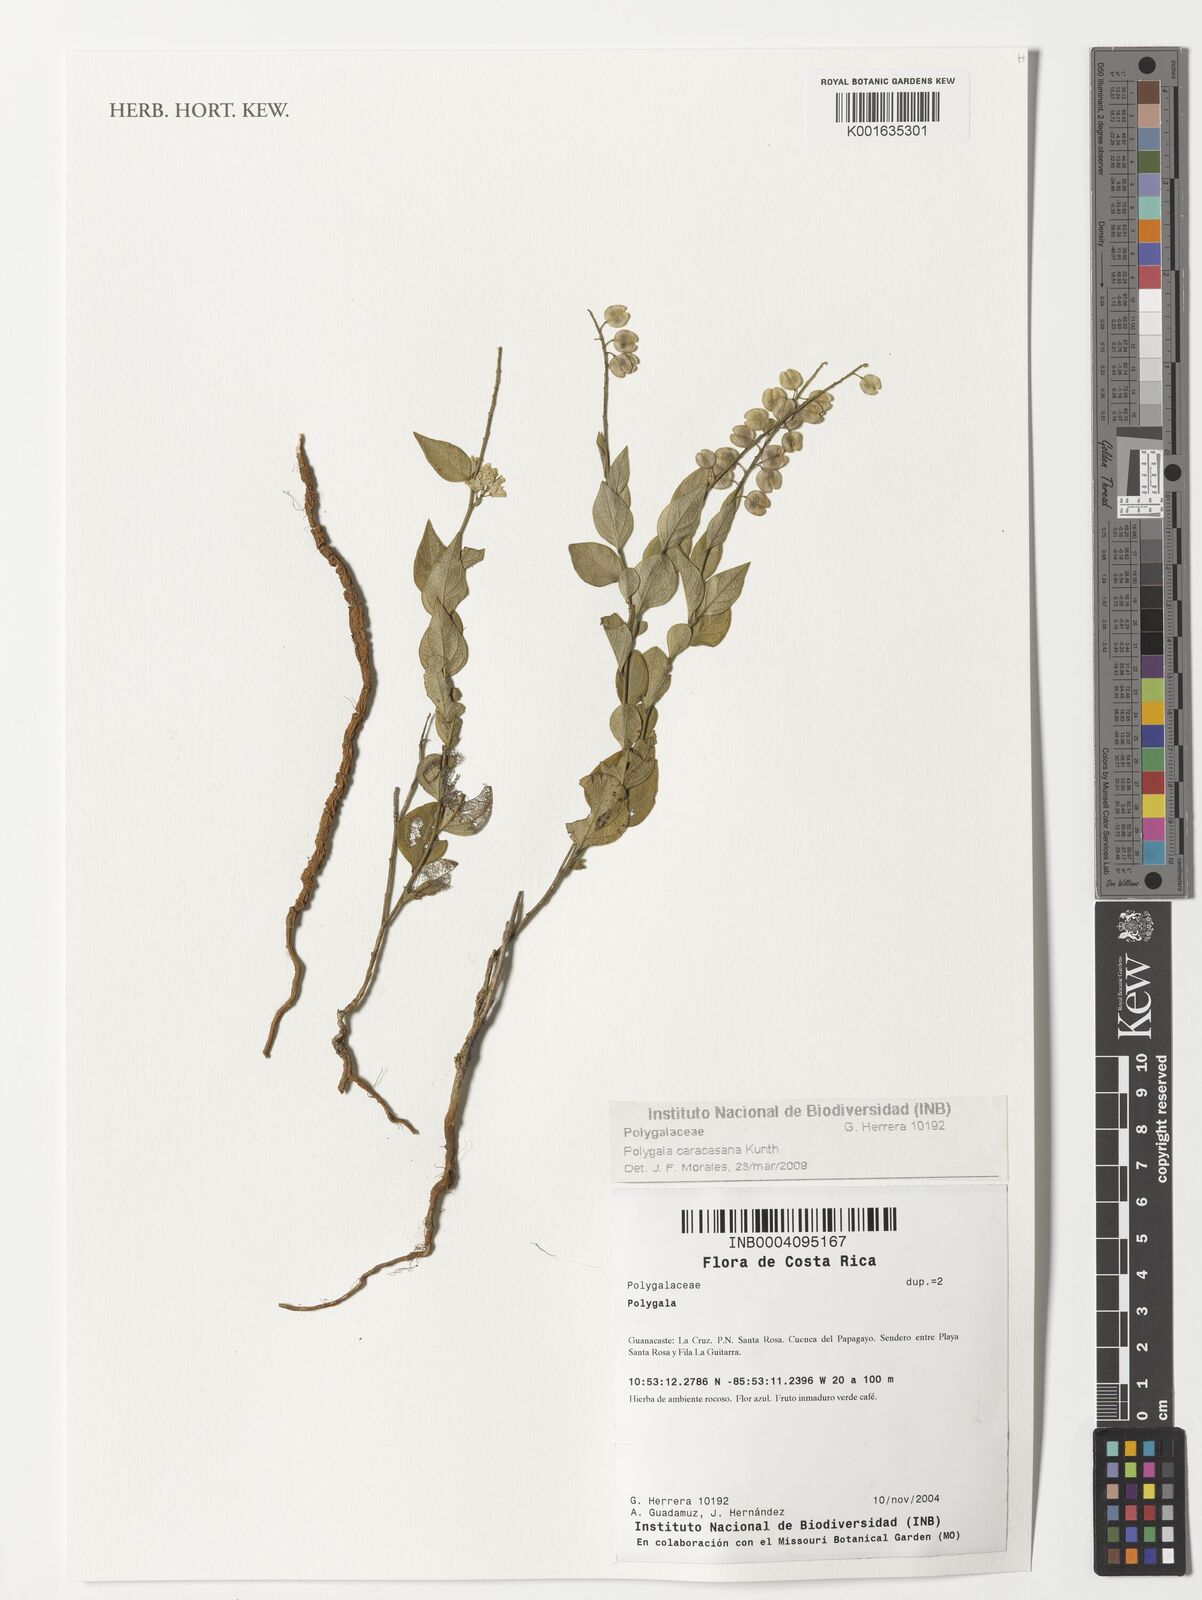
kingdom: Plantae
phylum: Tracheophyta
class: Magnoliopsida
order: Fabales
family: Polygalaceae
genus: Hebecarpa
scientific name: Hebecarpa caracasana
